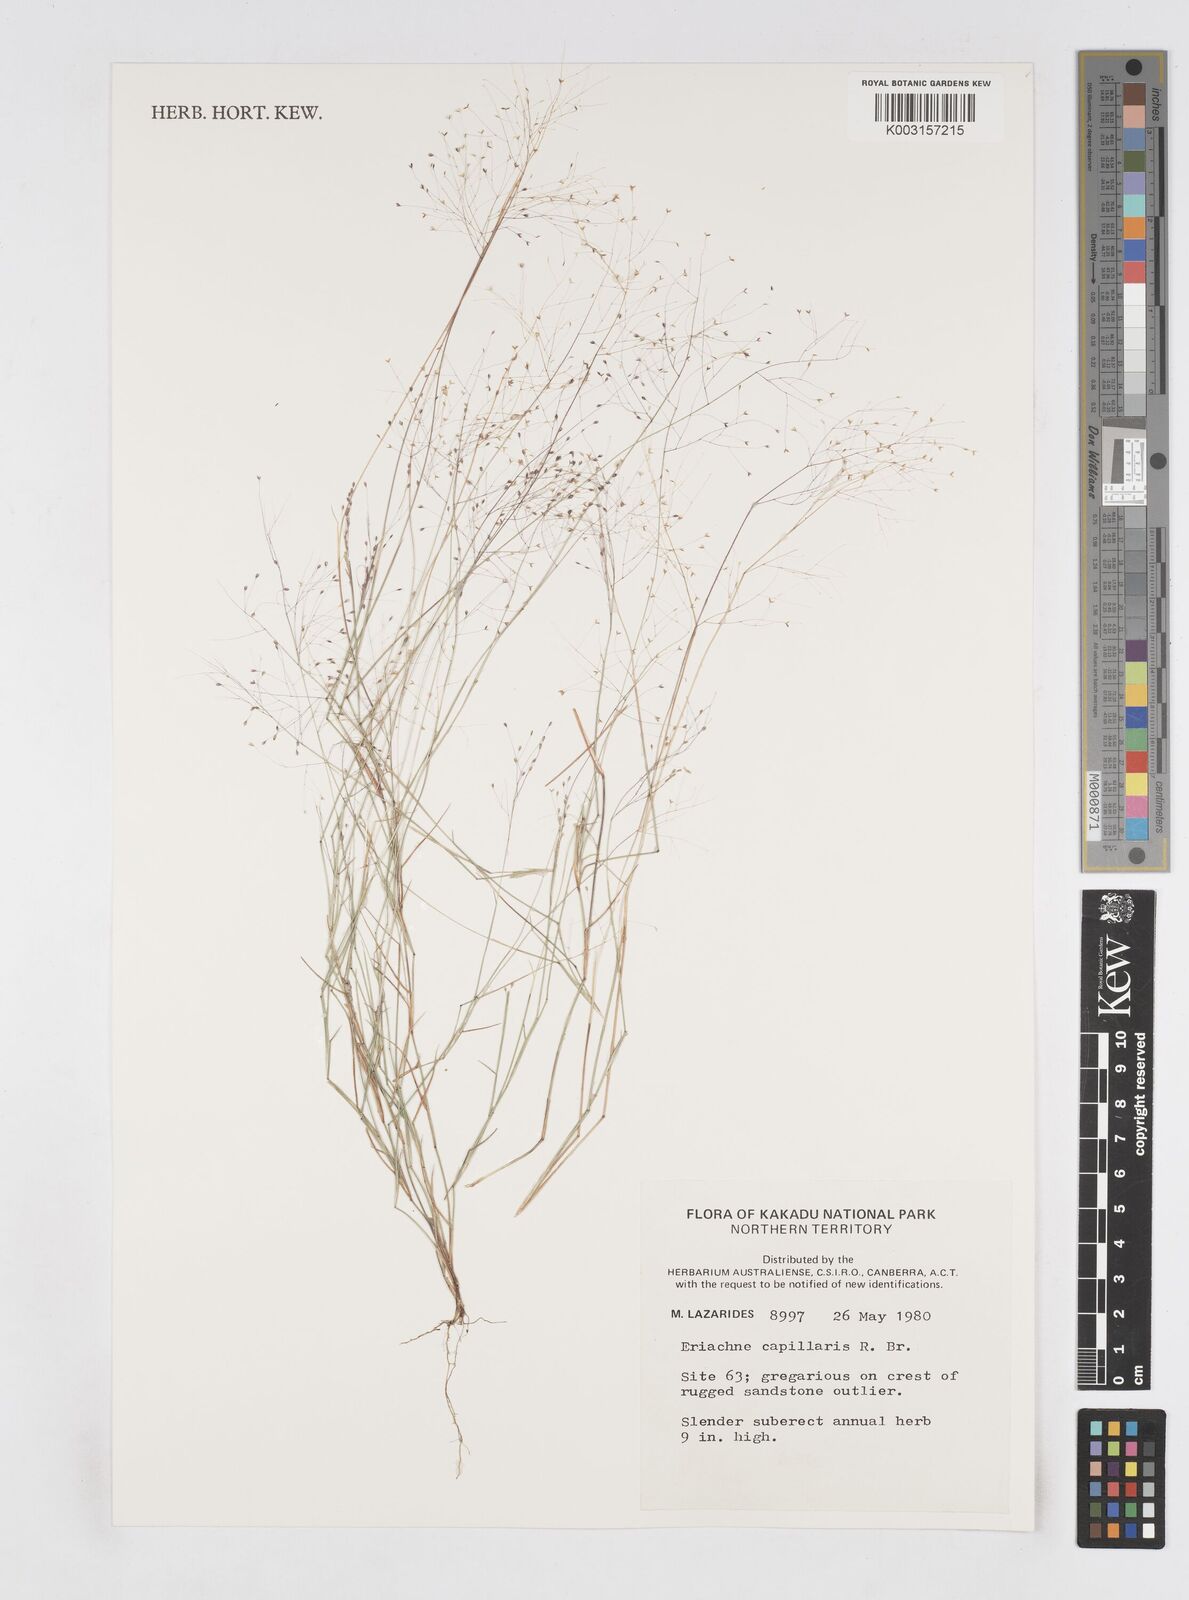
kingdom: Plantae
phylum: Tracheophyta
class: Liliopsida
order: Poales
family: Poaceae
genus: Eriachne
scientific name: Eriachne capillaris
